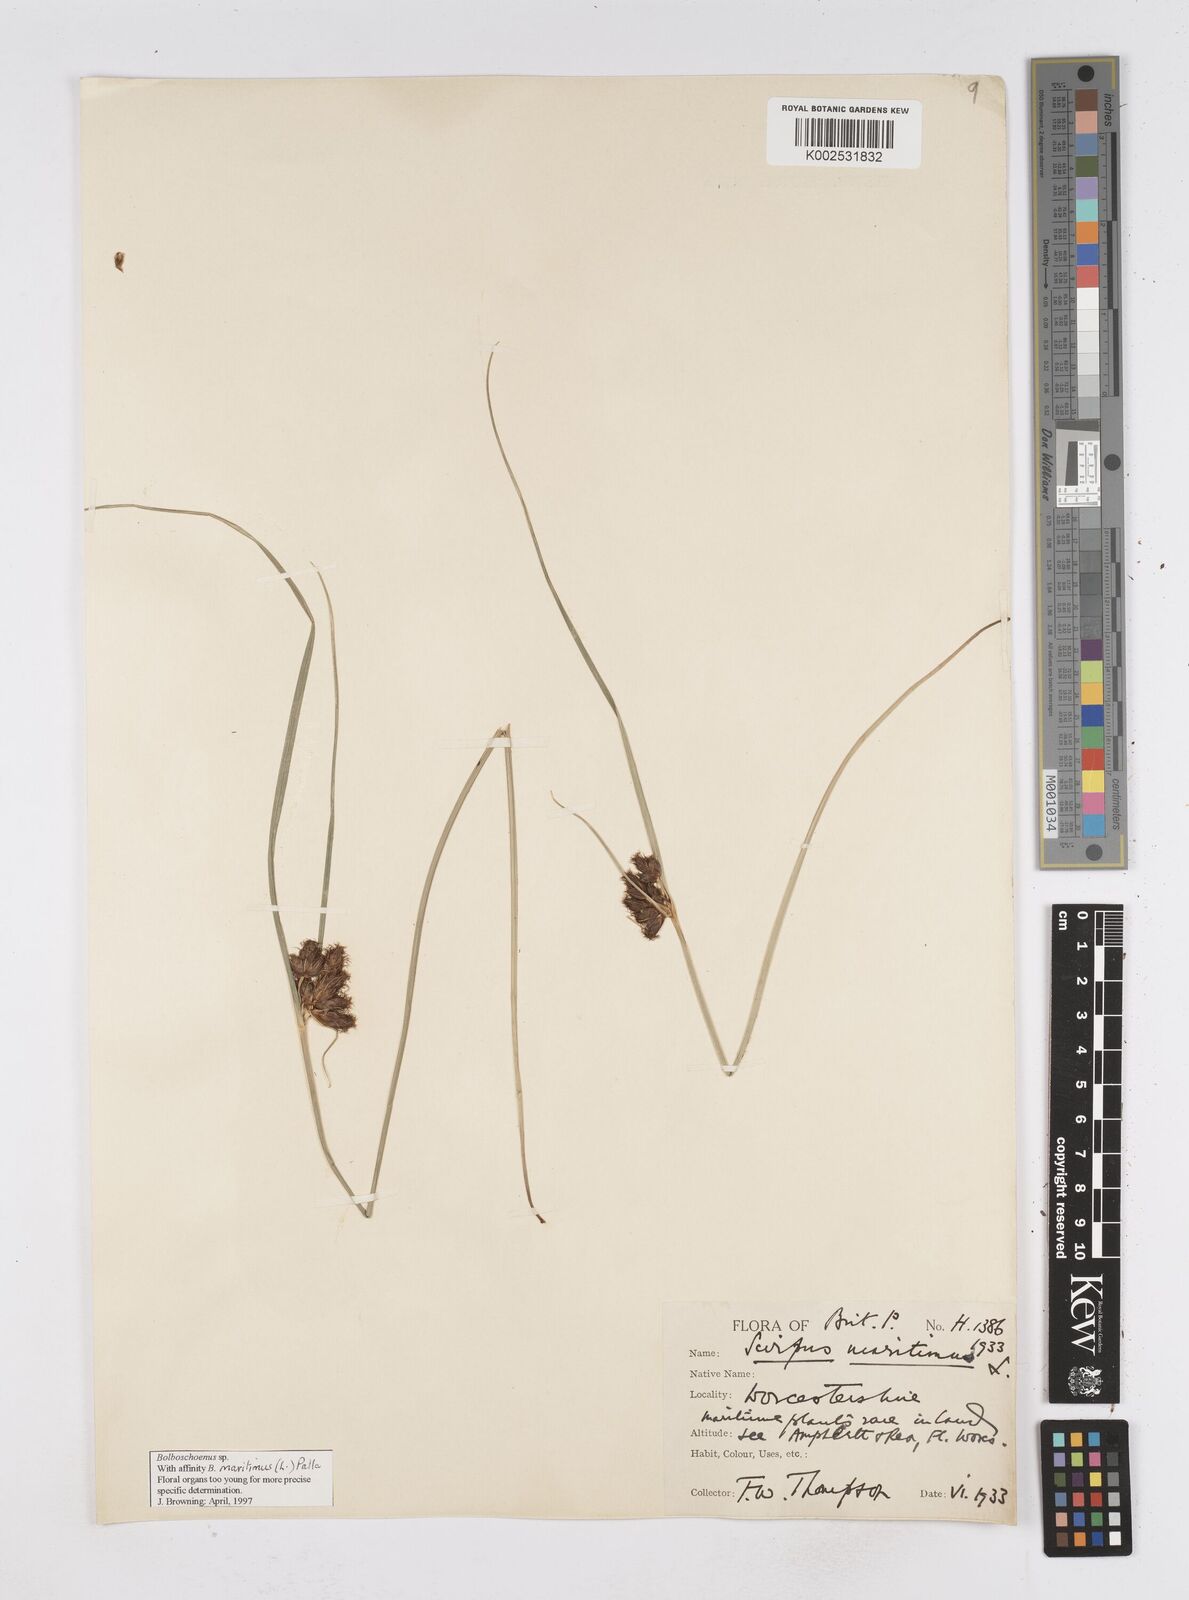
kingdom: Plantae
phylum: Tracheophyta
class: Liliopsida
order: Poales
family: Cyperaceae
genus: Bolboschoenus
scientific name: Bolboschoenus maritimus
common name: Sea club-rush
